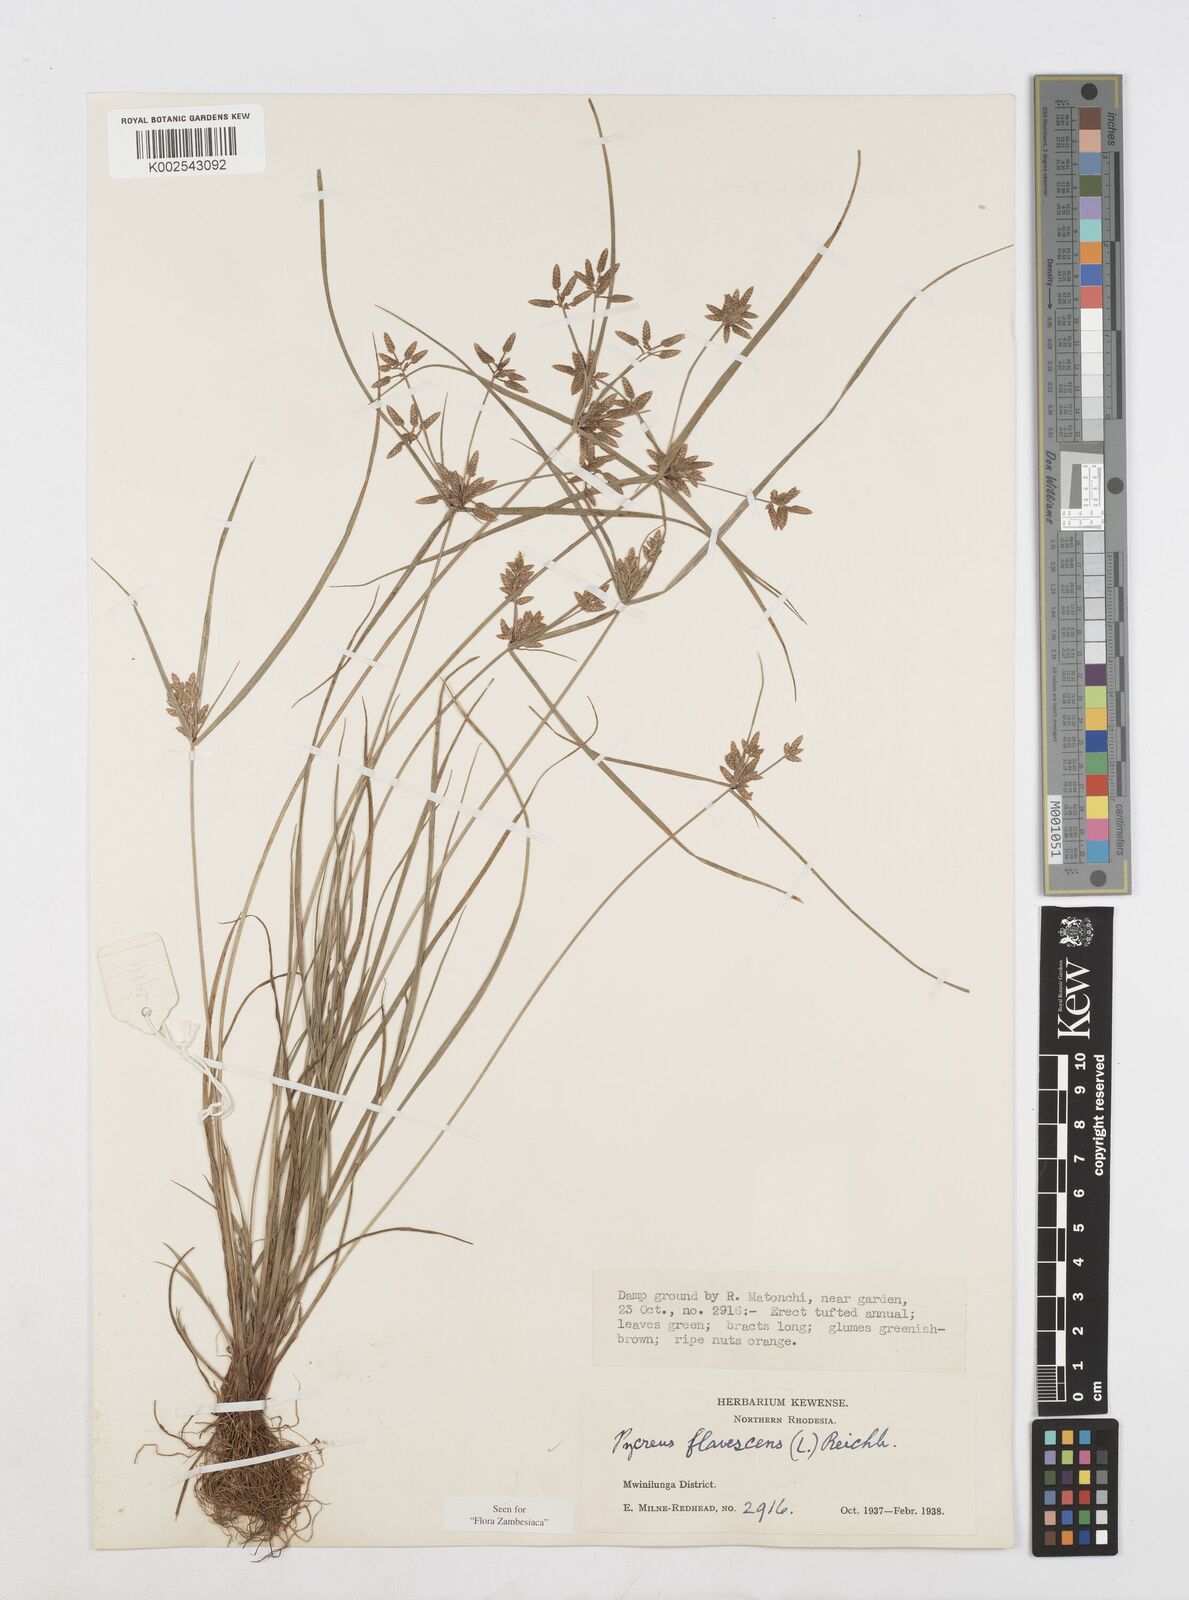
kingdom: Plantae
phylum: Tracheophyta
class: Liliopsida
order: Poales
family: Cyperaceae
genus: Cyperus
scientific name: Cyperus flavescens
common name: Yellow galingale
